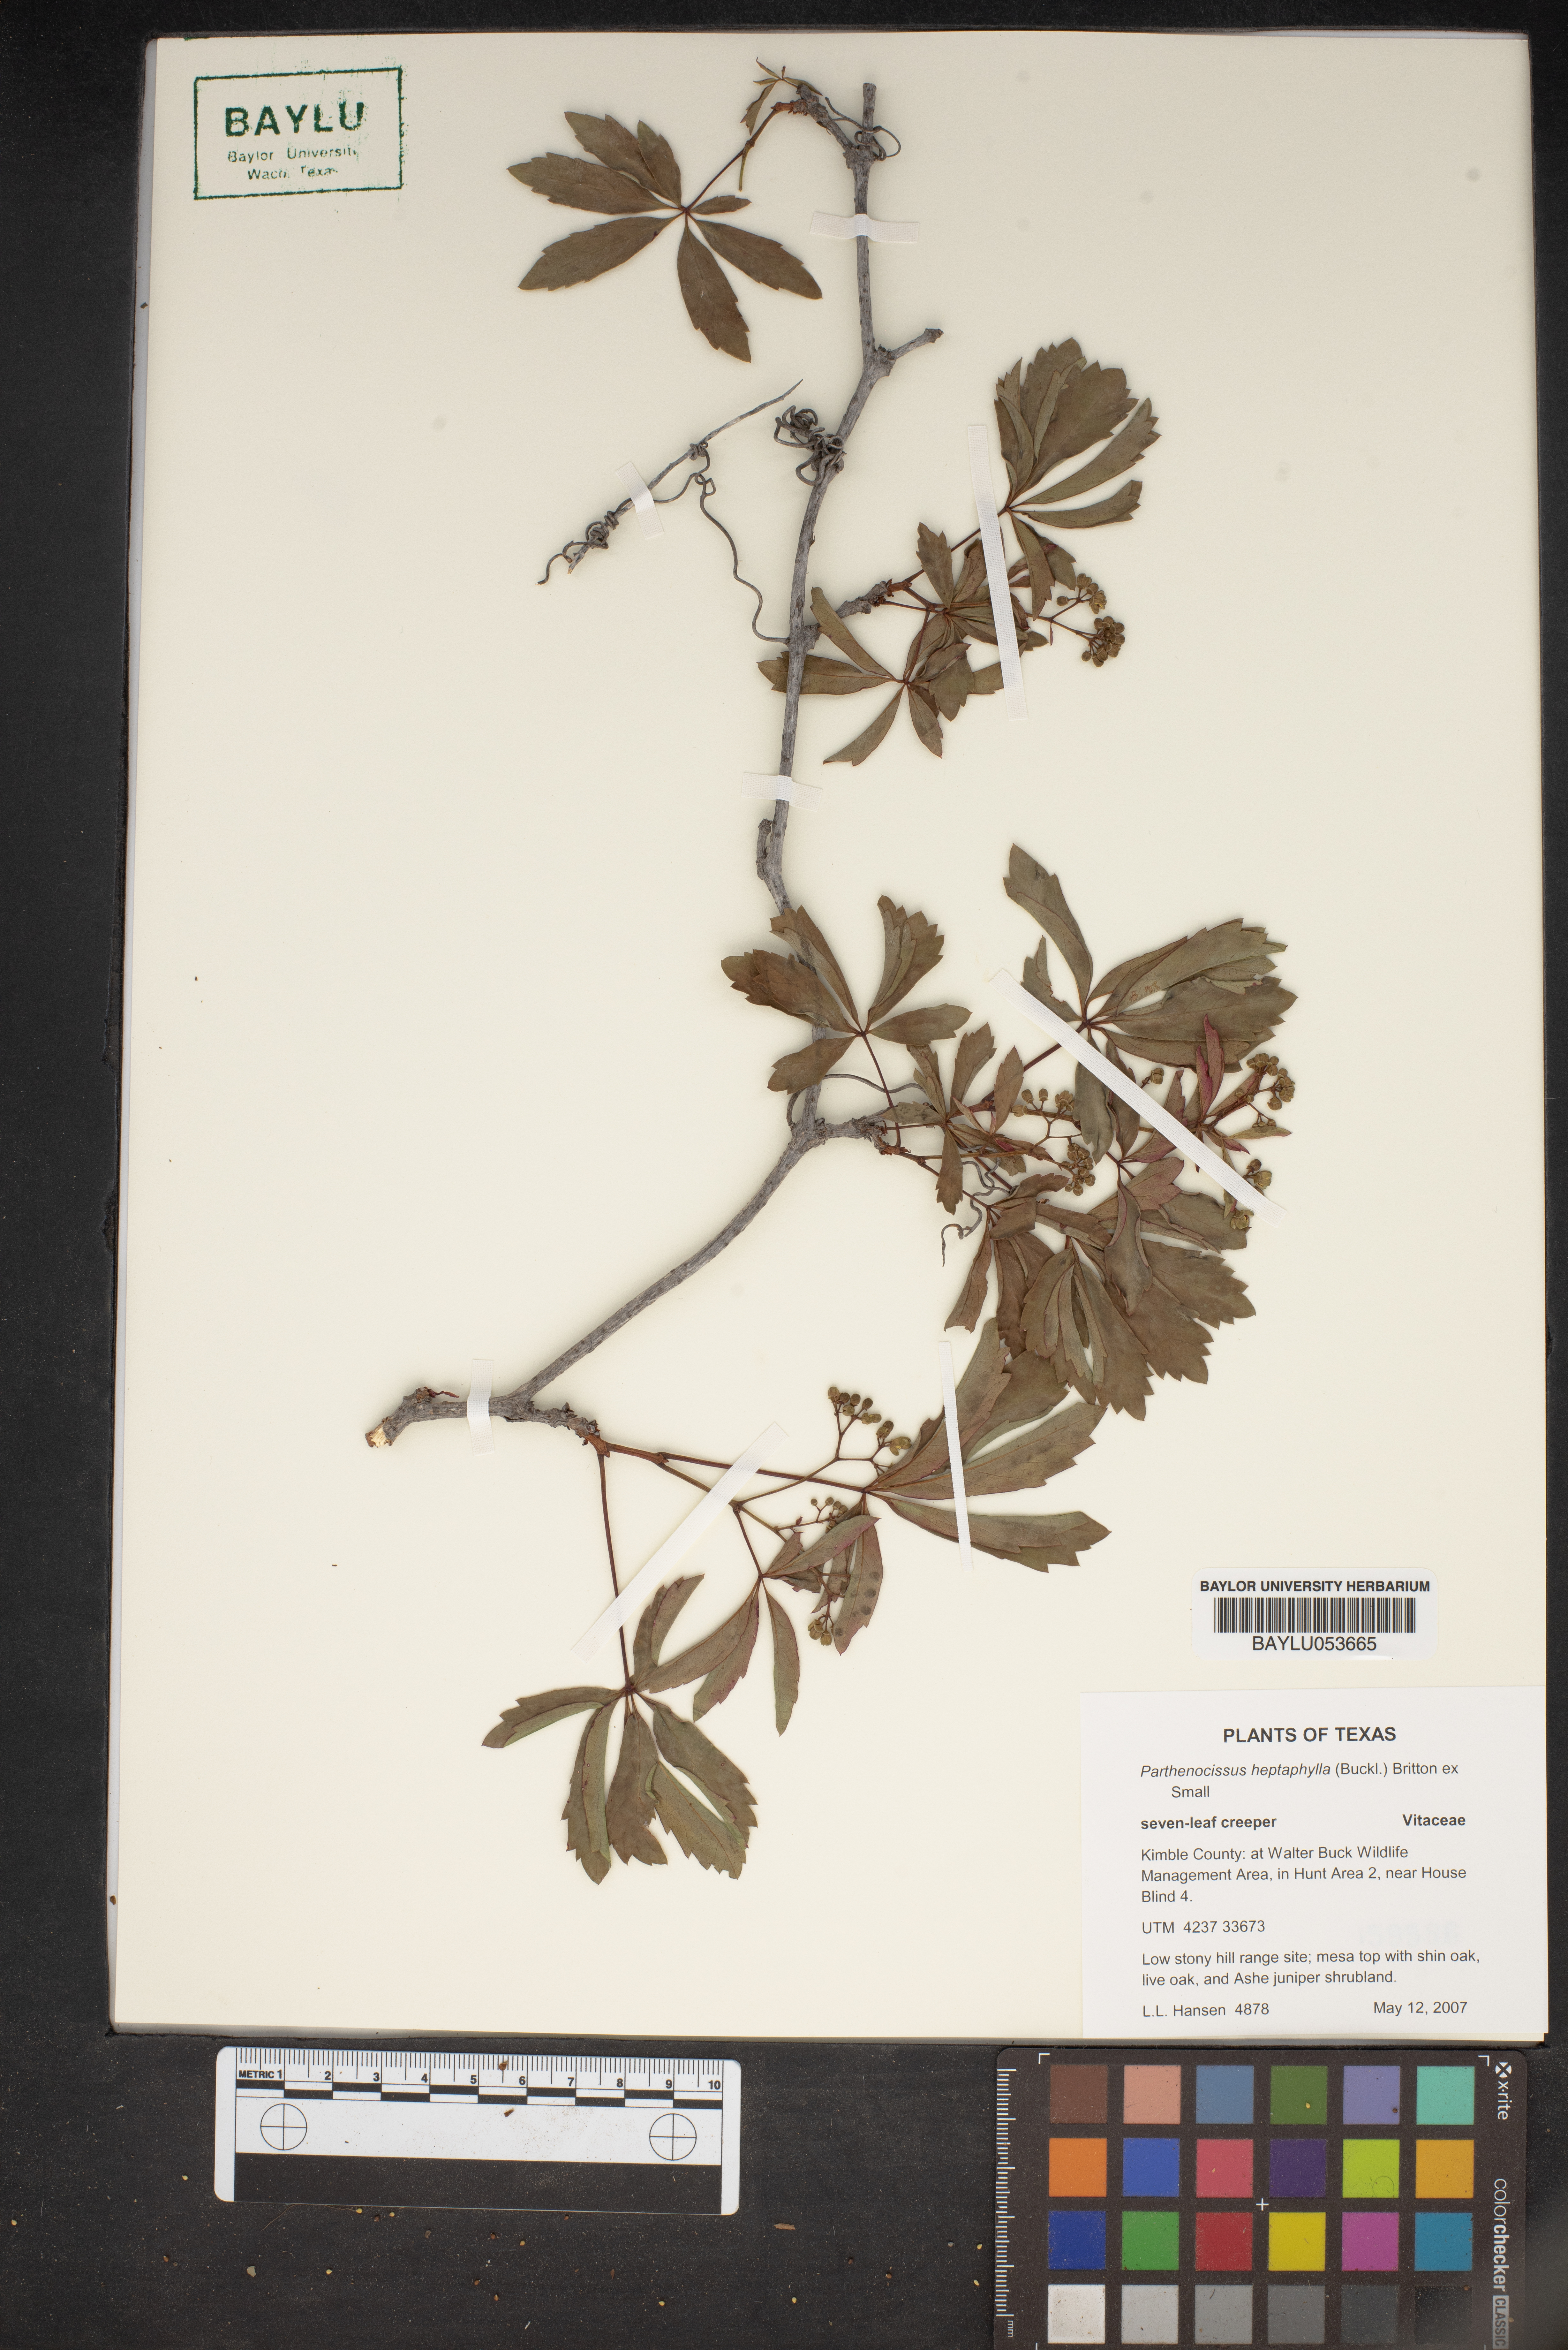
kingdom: Plantae
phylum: Tracheophyta
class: Magnoliopsida
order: Vitales
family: Vitaceae
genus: Parthenocissus
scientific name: Parthenocissus heptaphylla
